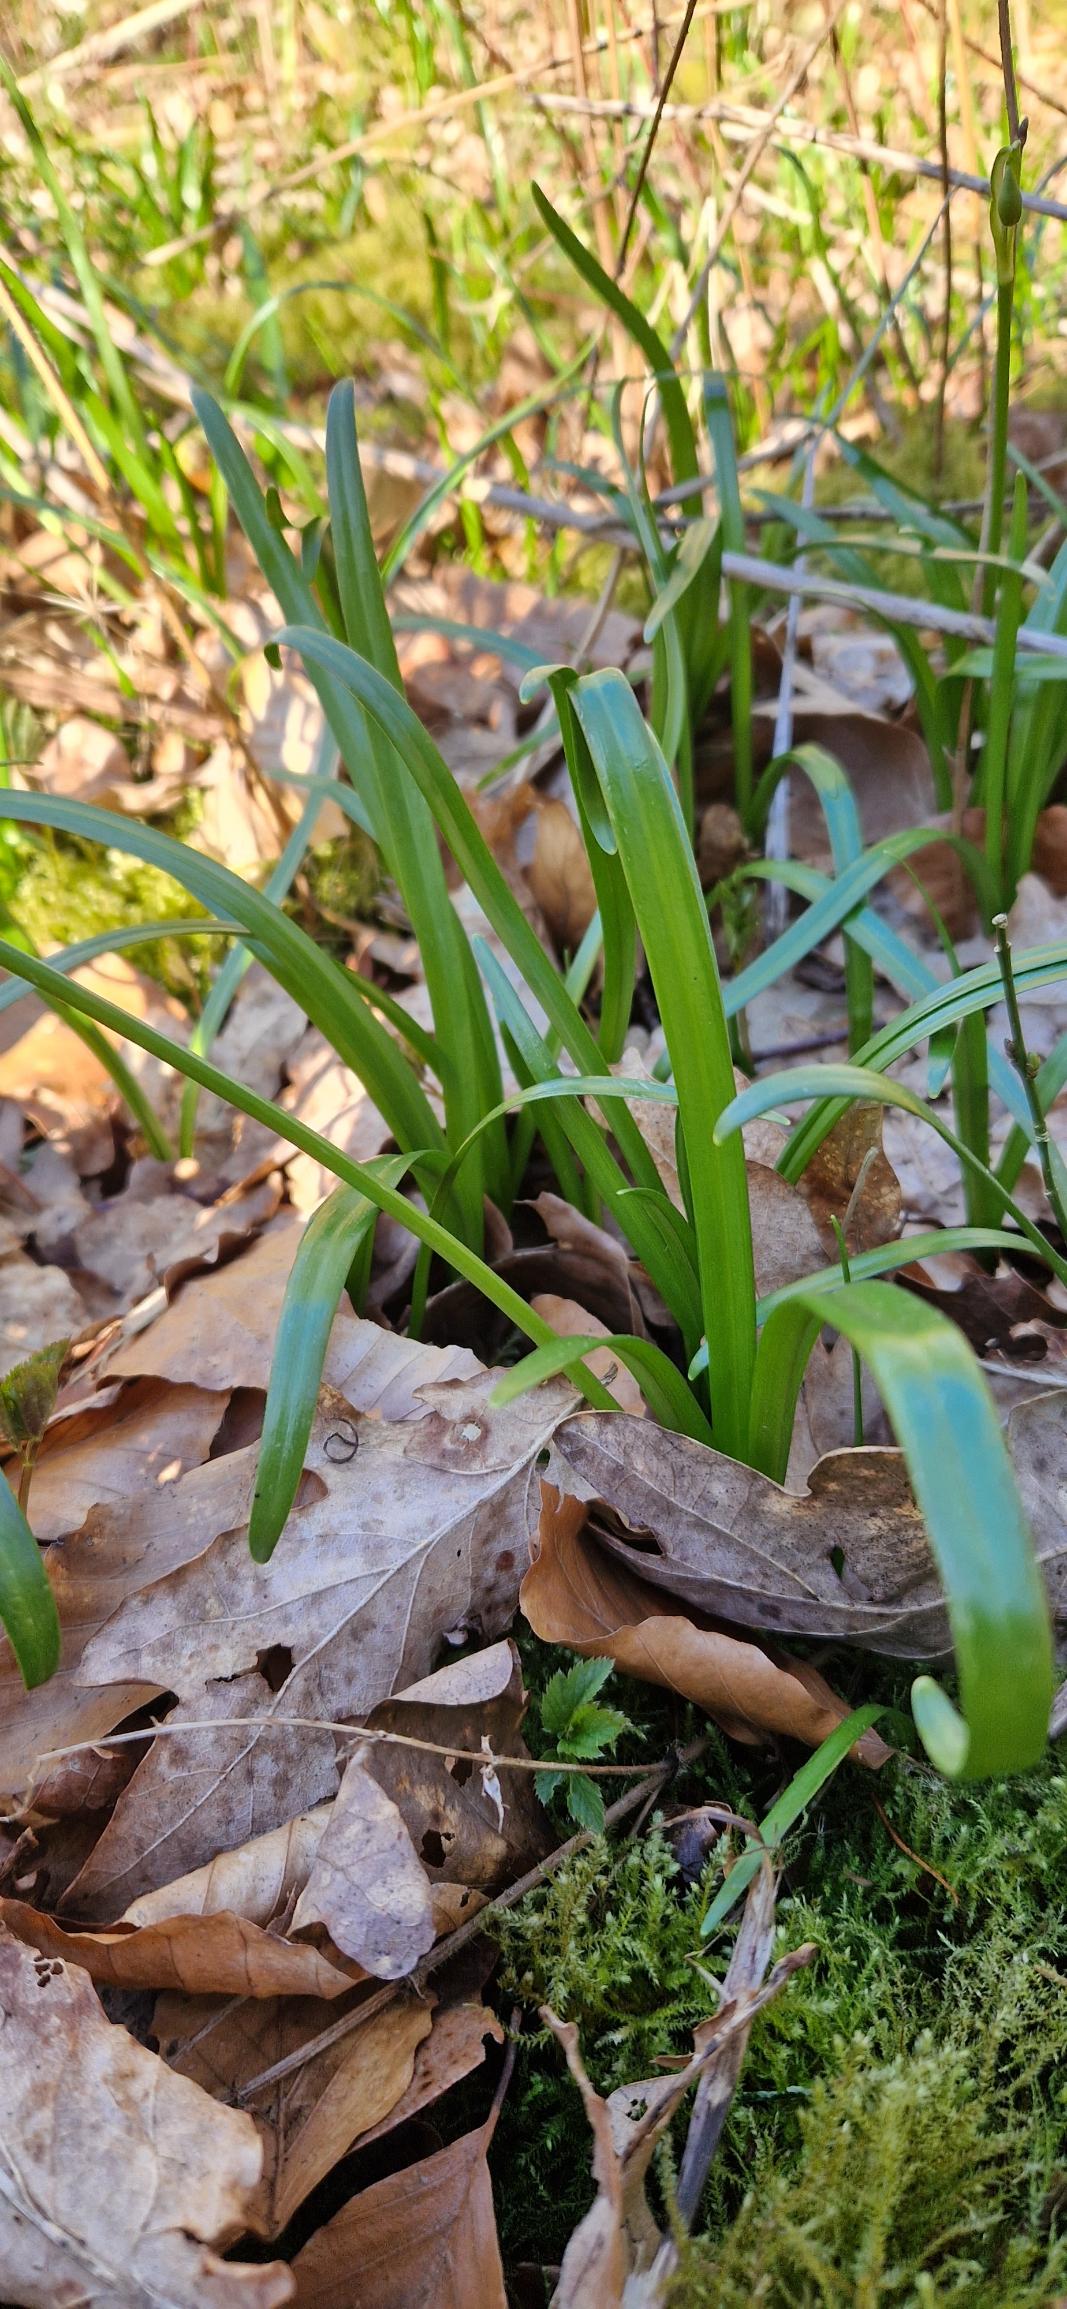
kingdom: Plantae
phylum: Tracheophyta
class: Liliopsida
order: Asparagales
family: Amaryllidaceae
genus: Leucojum
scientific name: Leucojum vernum
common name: Dorthealilje
